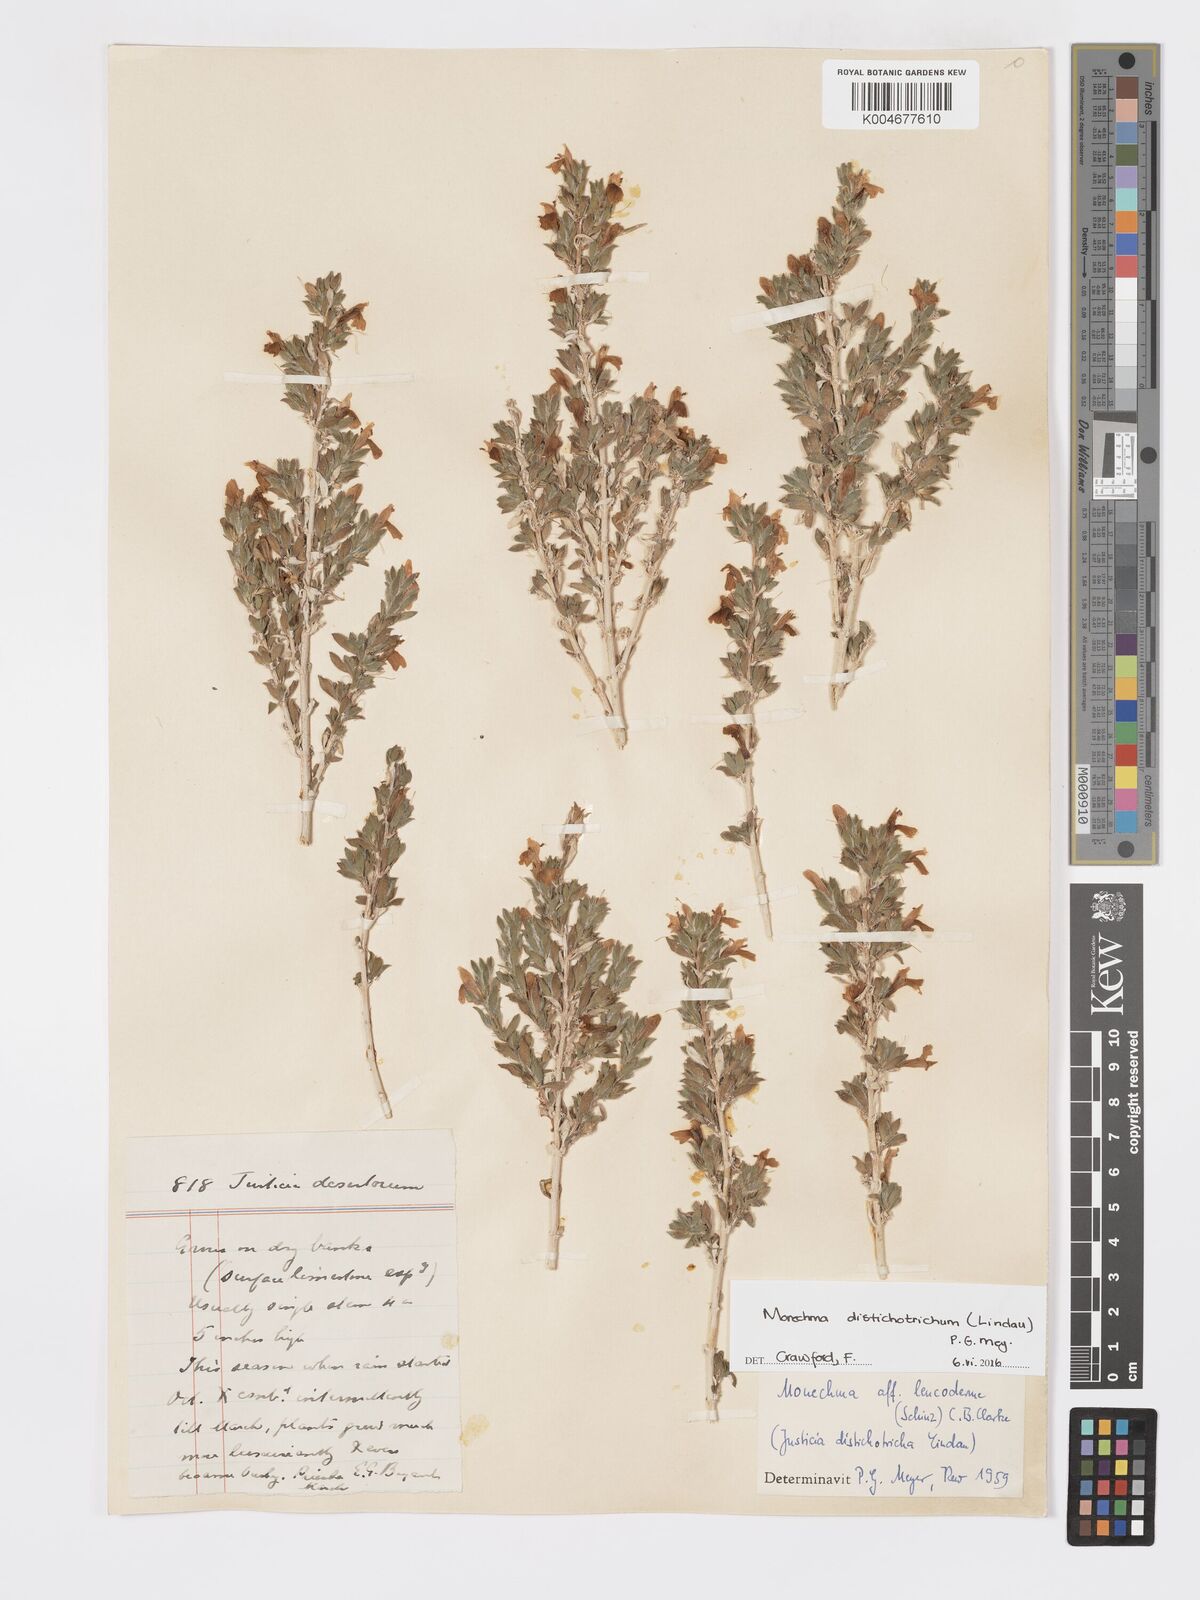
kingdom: Plantae
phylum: Tracheophyta
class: Magnoliopsida
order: Lamiales
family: Acanthaceae
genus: Pogonospermum
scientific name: Pogonospermum
